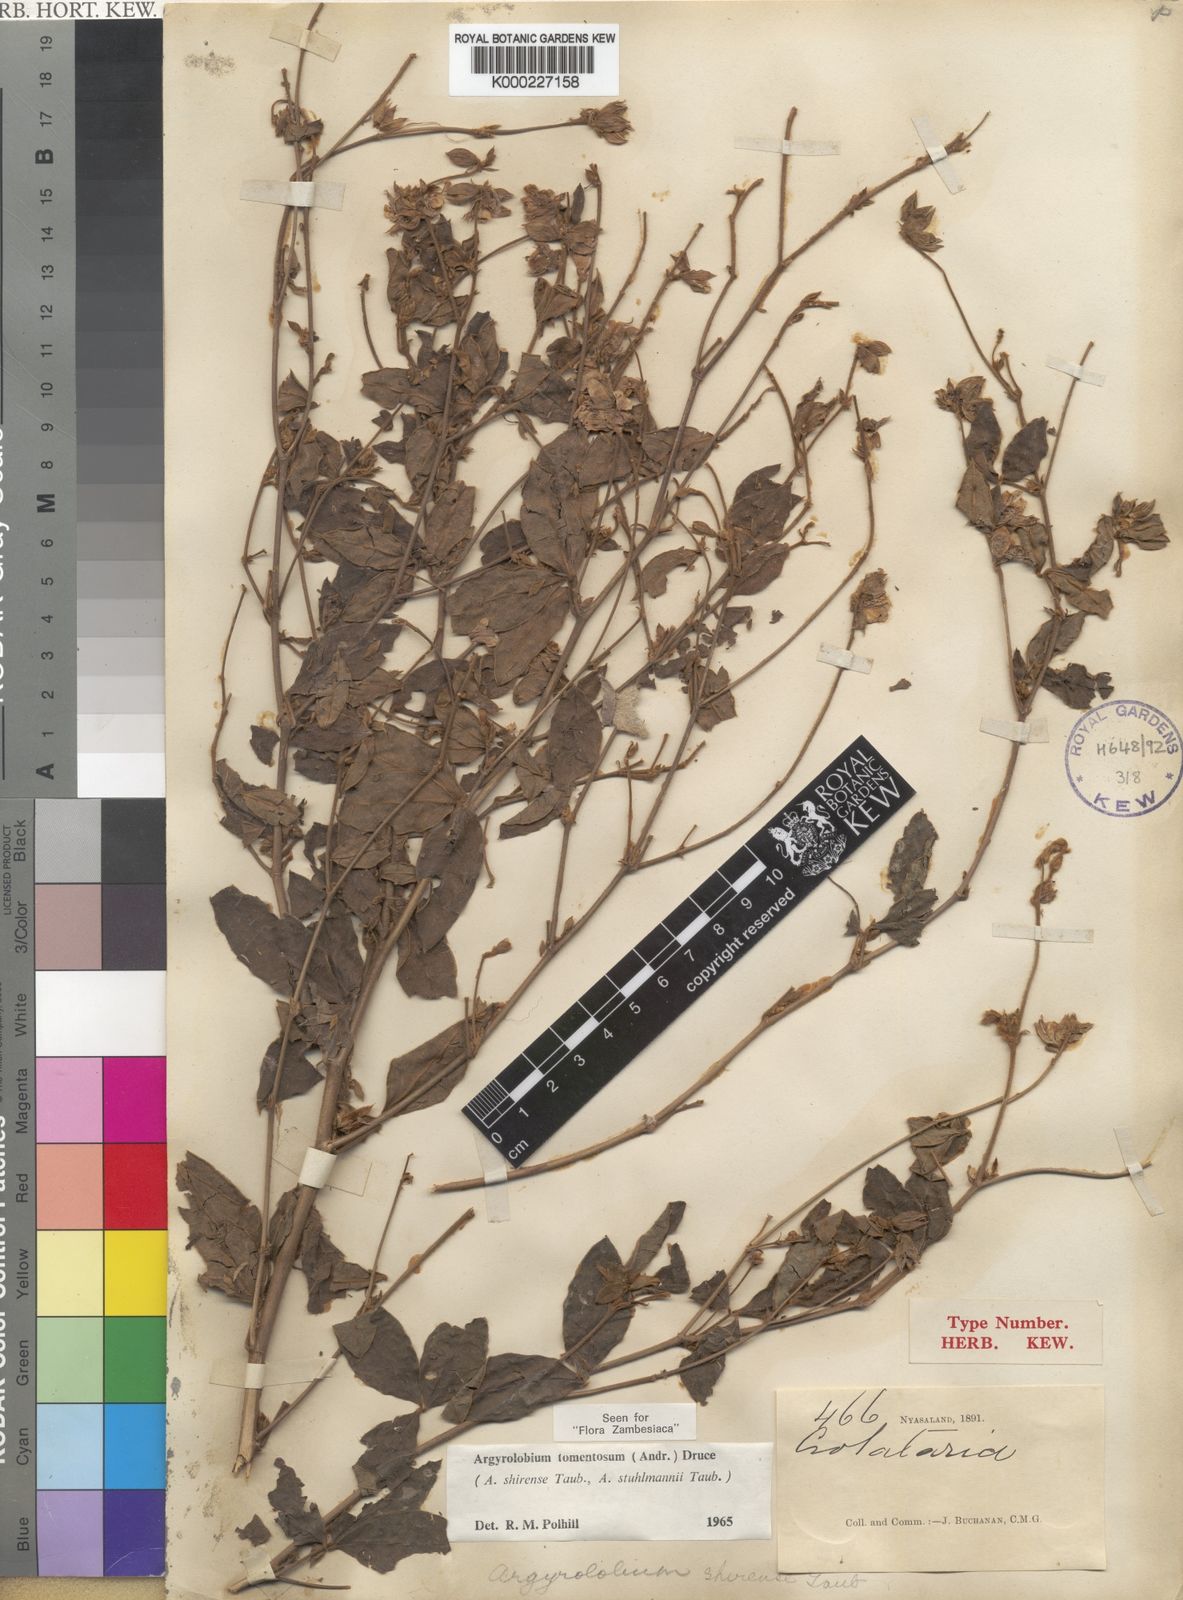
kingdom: Plantae
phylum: Tracheophyta
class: Magnoliopsida
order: Fabales
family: Fabaceae
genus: Argyrolobium
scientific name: Argyrolobium tomentosum
